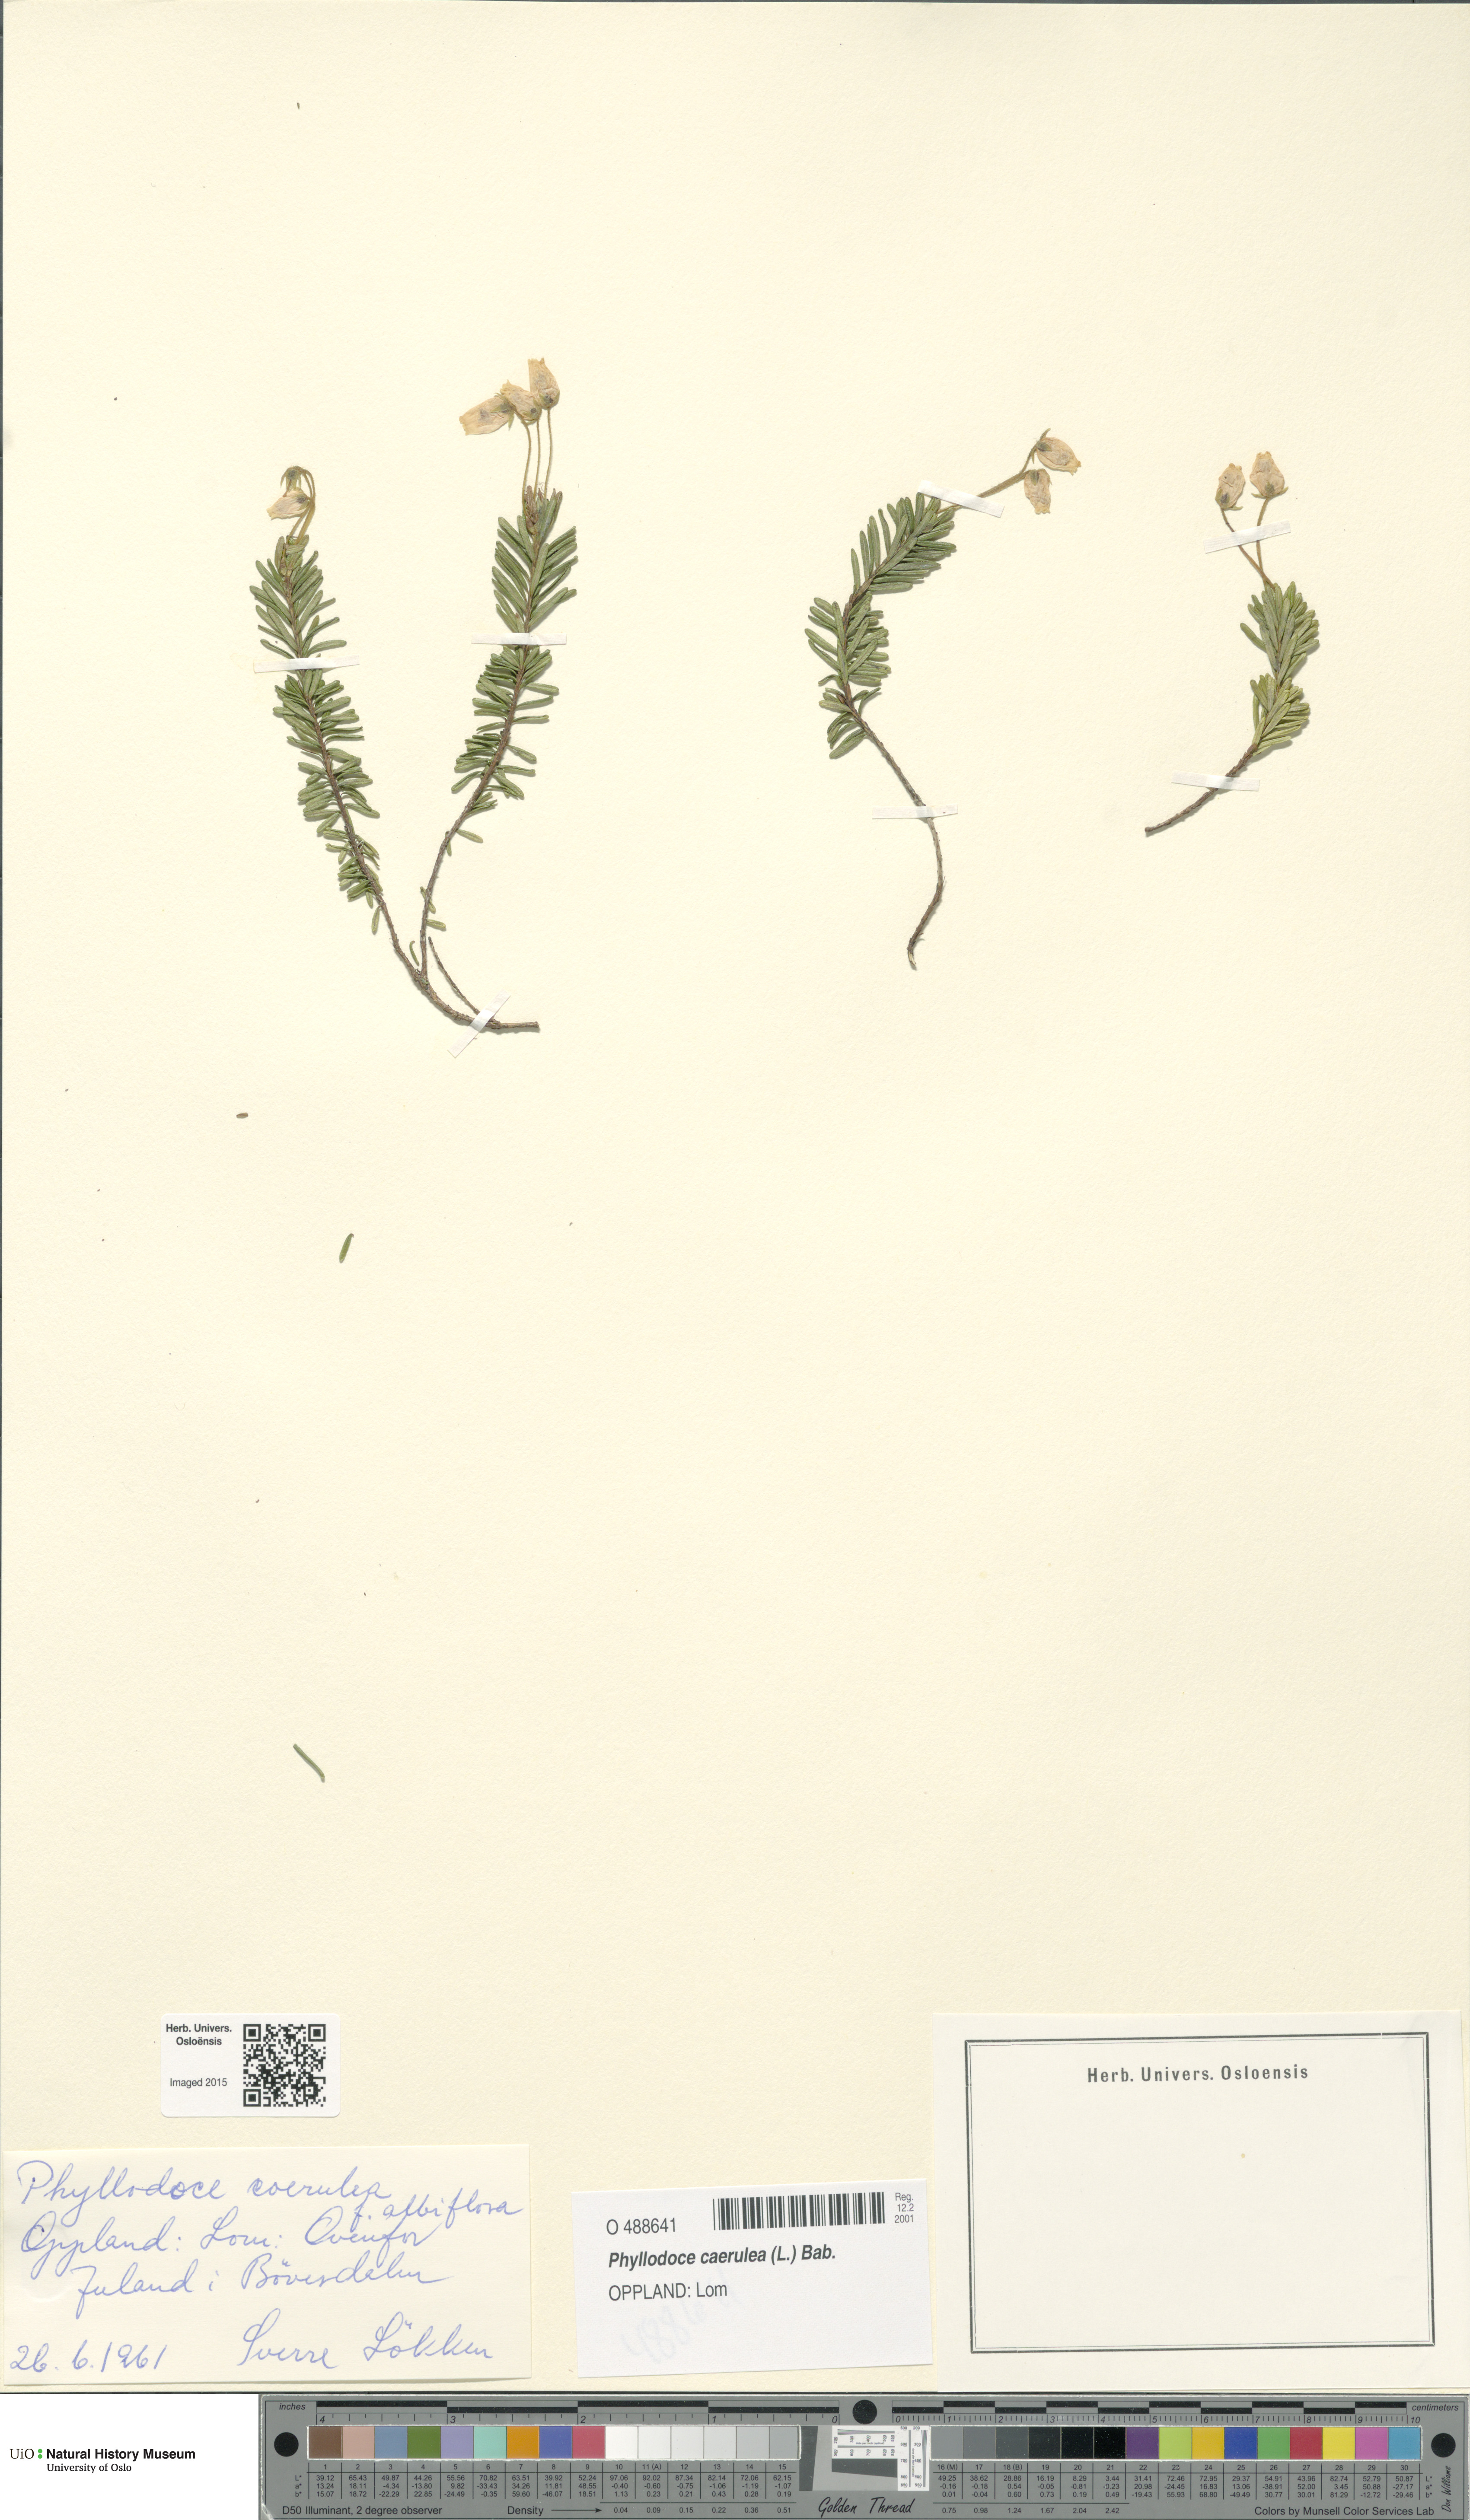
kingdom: Plantae
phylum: Tracheophyta
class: Magnoliopsida
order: Ericales
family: Ericaceae
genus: Phyllodoce
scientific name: Phyllodoce caerulea
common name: Blue heath
